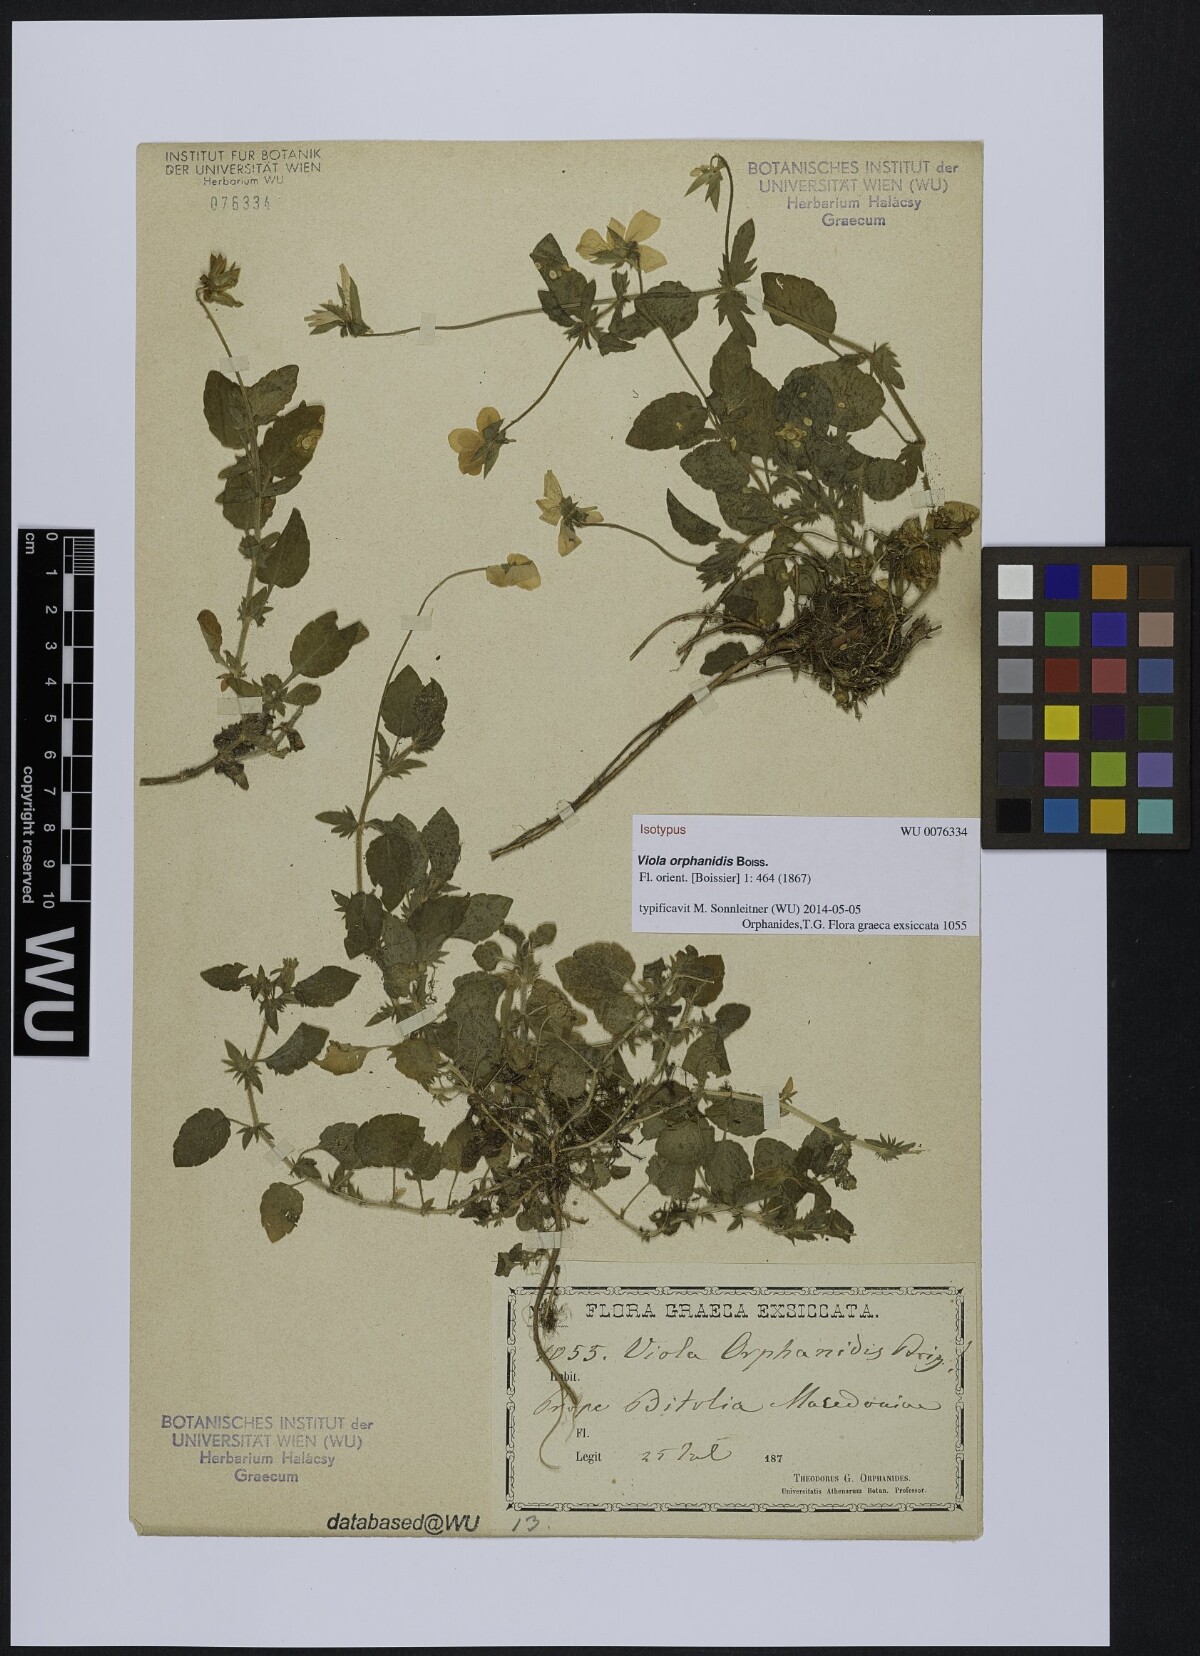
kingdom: Plantae
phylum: Tracheophyta
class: Magnoliopsida
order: Malpighiales
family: Violaceae
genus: Viola
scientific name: Viola orphanidis
